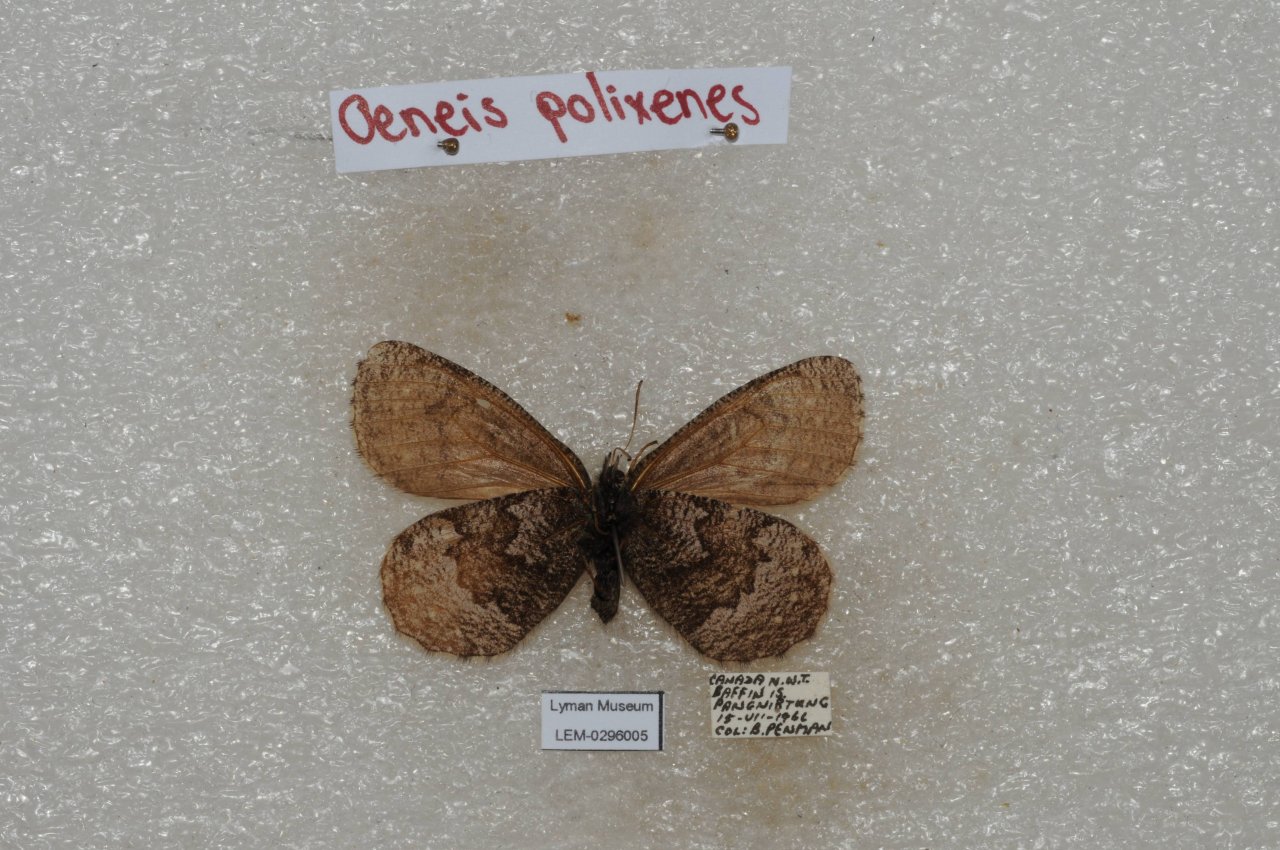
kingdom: Animalia
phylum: Arthropoda
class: Insecta
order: Lepidoptera
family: Nymphalidae
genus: Oeneis
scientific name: Oeneis bore
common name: Polixenes Arctic
